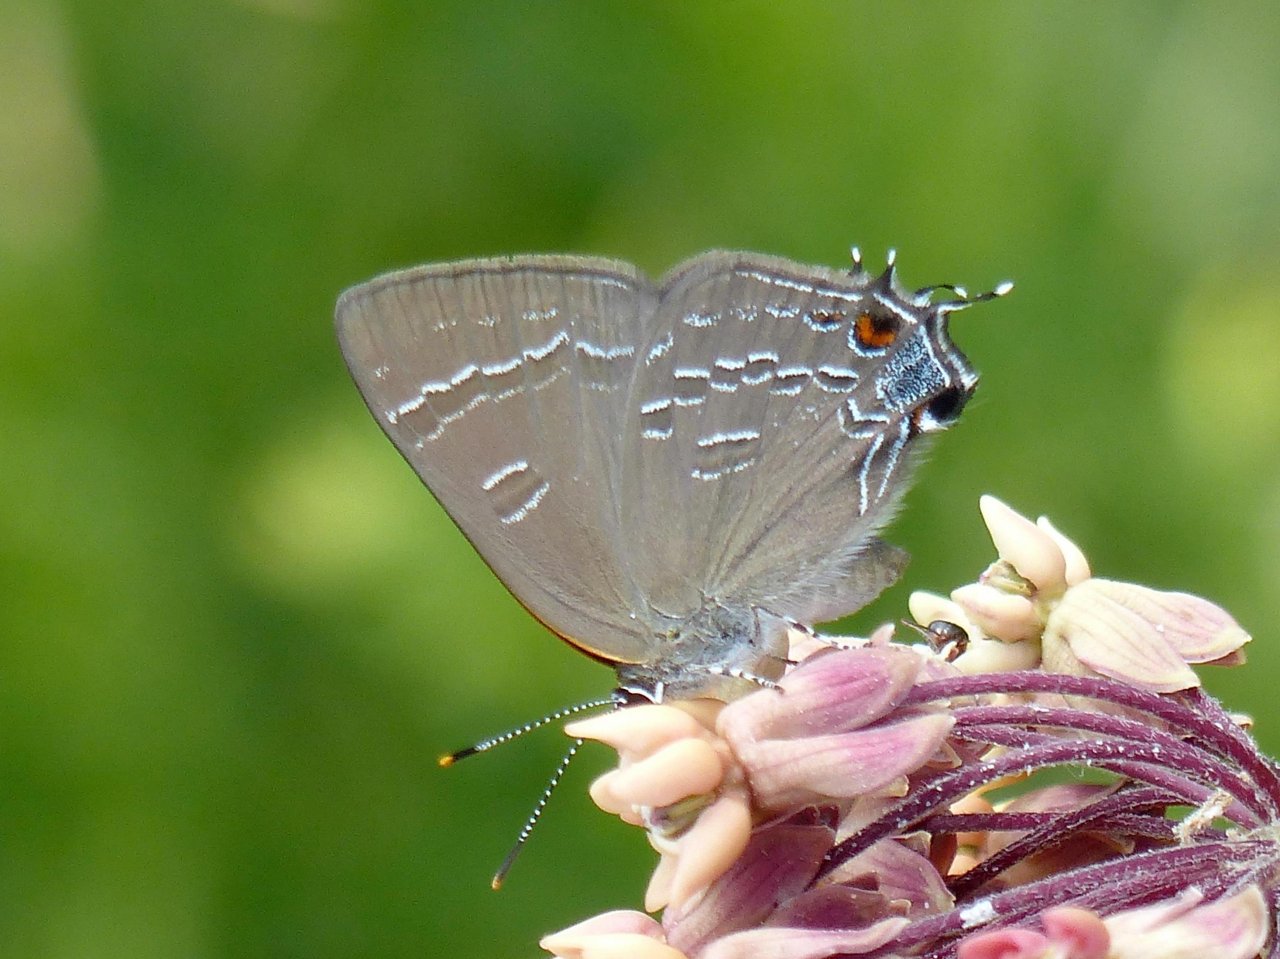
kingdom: Animalia
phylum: Arthropoda
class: Insecta
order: Lepidoptera
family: Lycaenidae
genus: Strymon
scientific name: Strymon caryaevorus
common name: Hickory Hairstreak
